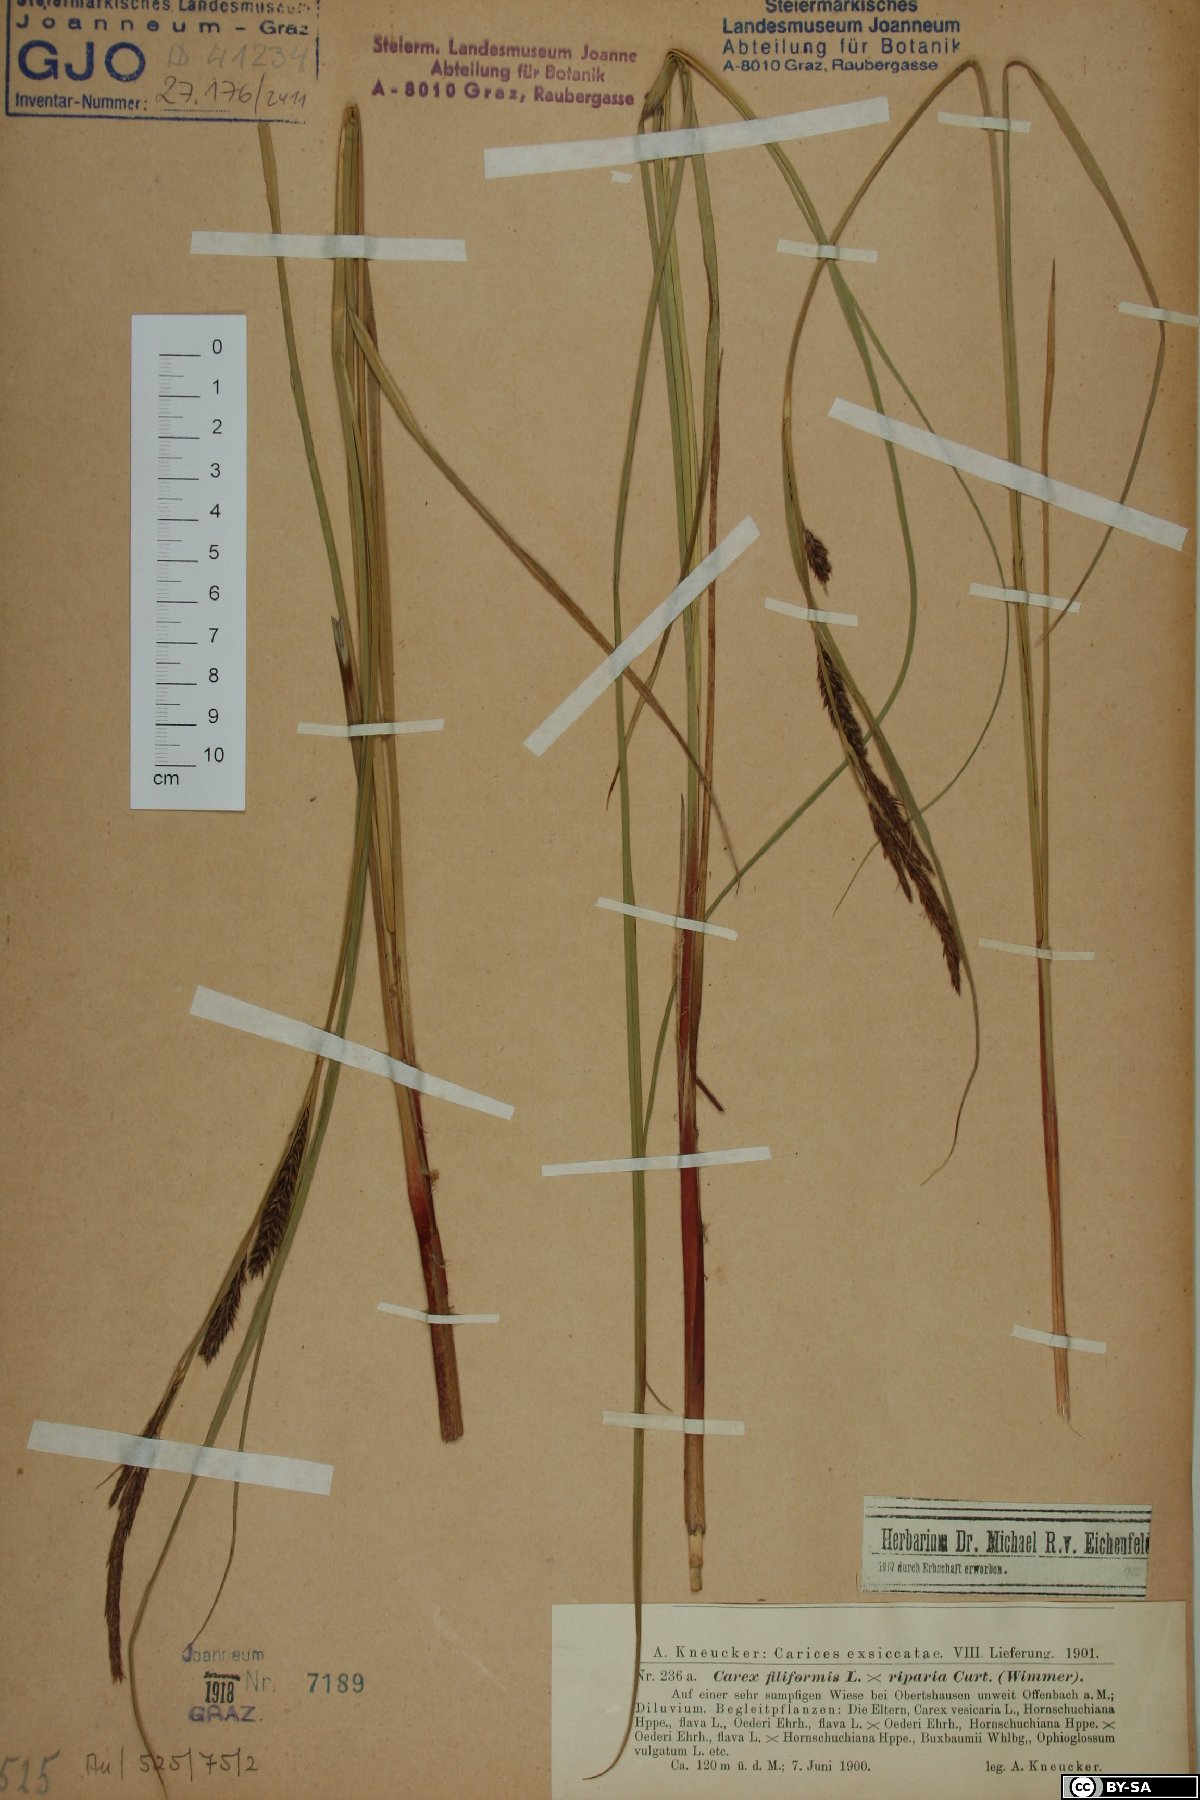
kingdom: Plantae
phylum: Tracheophyta
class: Liliopsida
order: Poales
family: Cyperaceae
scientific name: Cyperaceae
